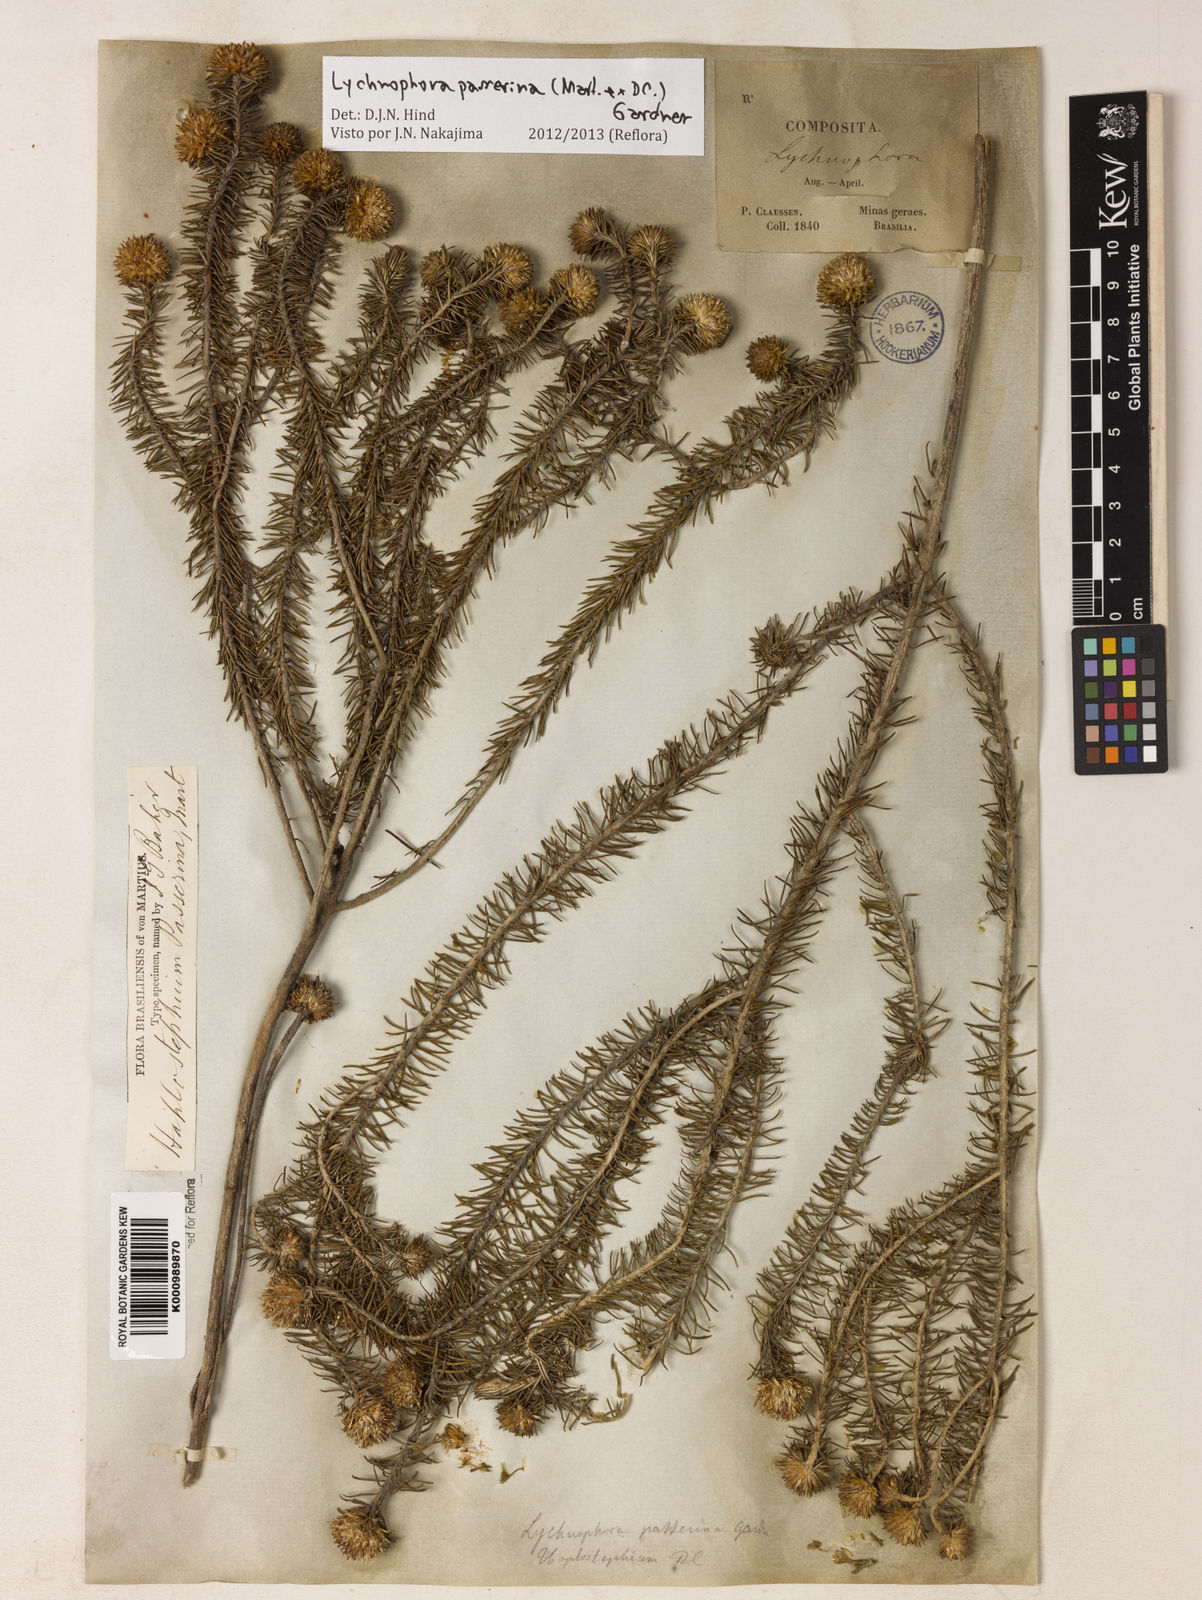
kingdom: Plantae
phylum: Tracheophyta
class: Magnoliopsida
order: Asterales
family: Asteraceae
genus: Lychnophora
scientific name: Lychnophora passerina
